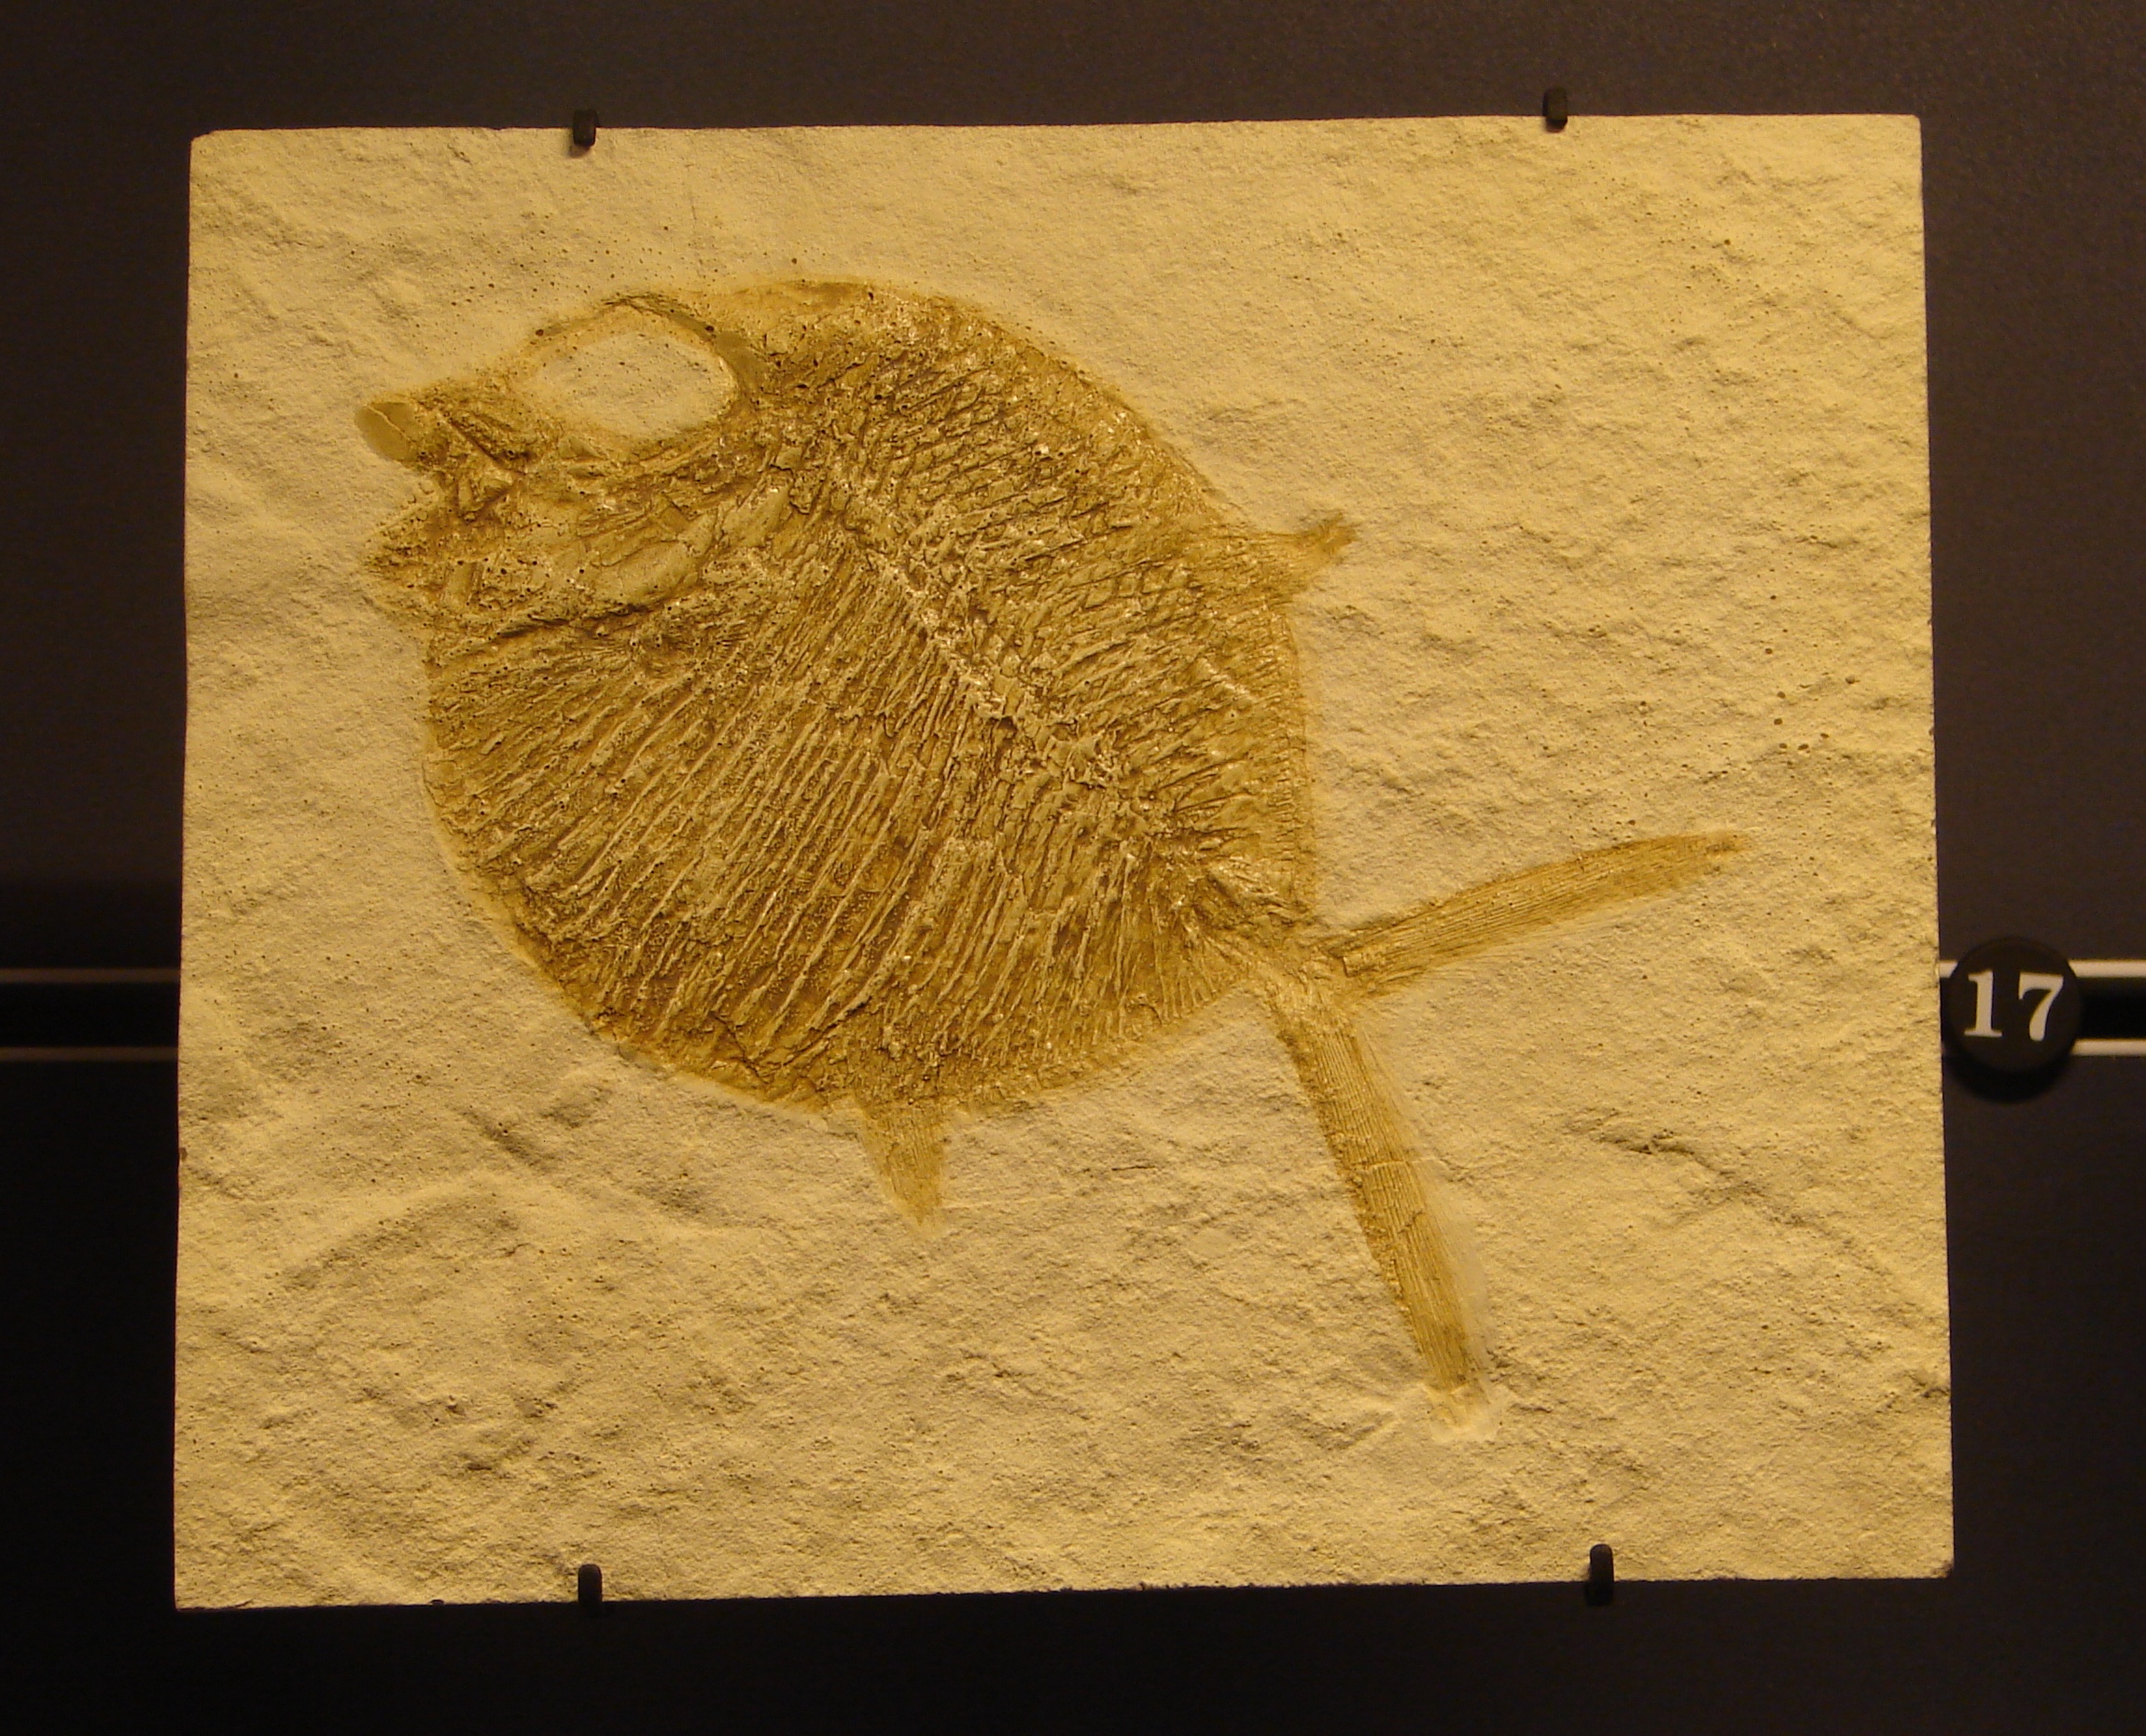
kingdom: Animalia
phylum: Chordata
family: Gyrodontidae
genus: Gyrodus
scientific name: Gyrodus hexagonus
